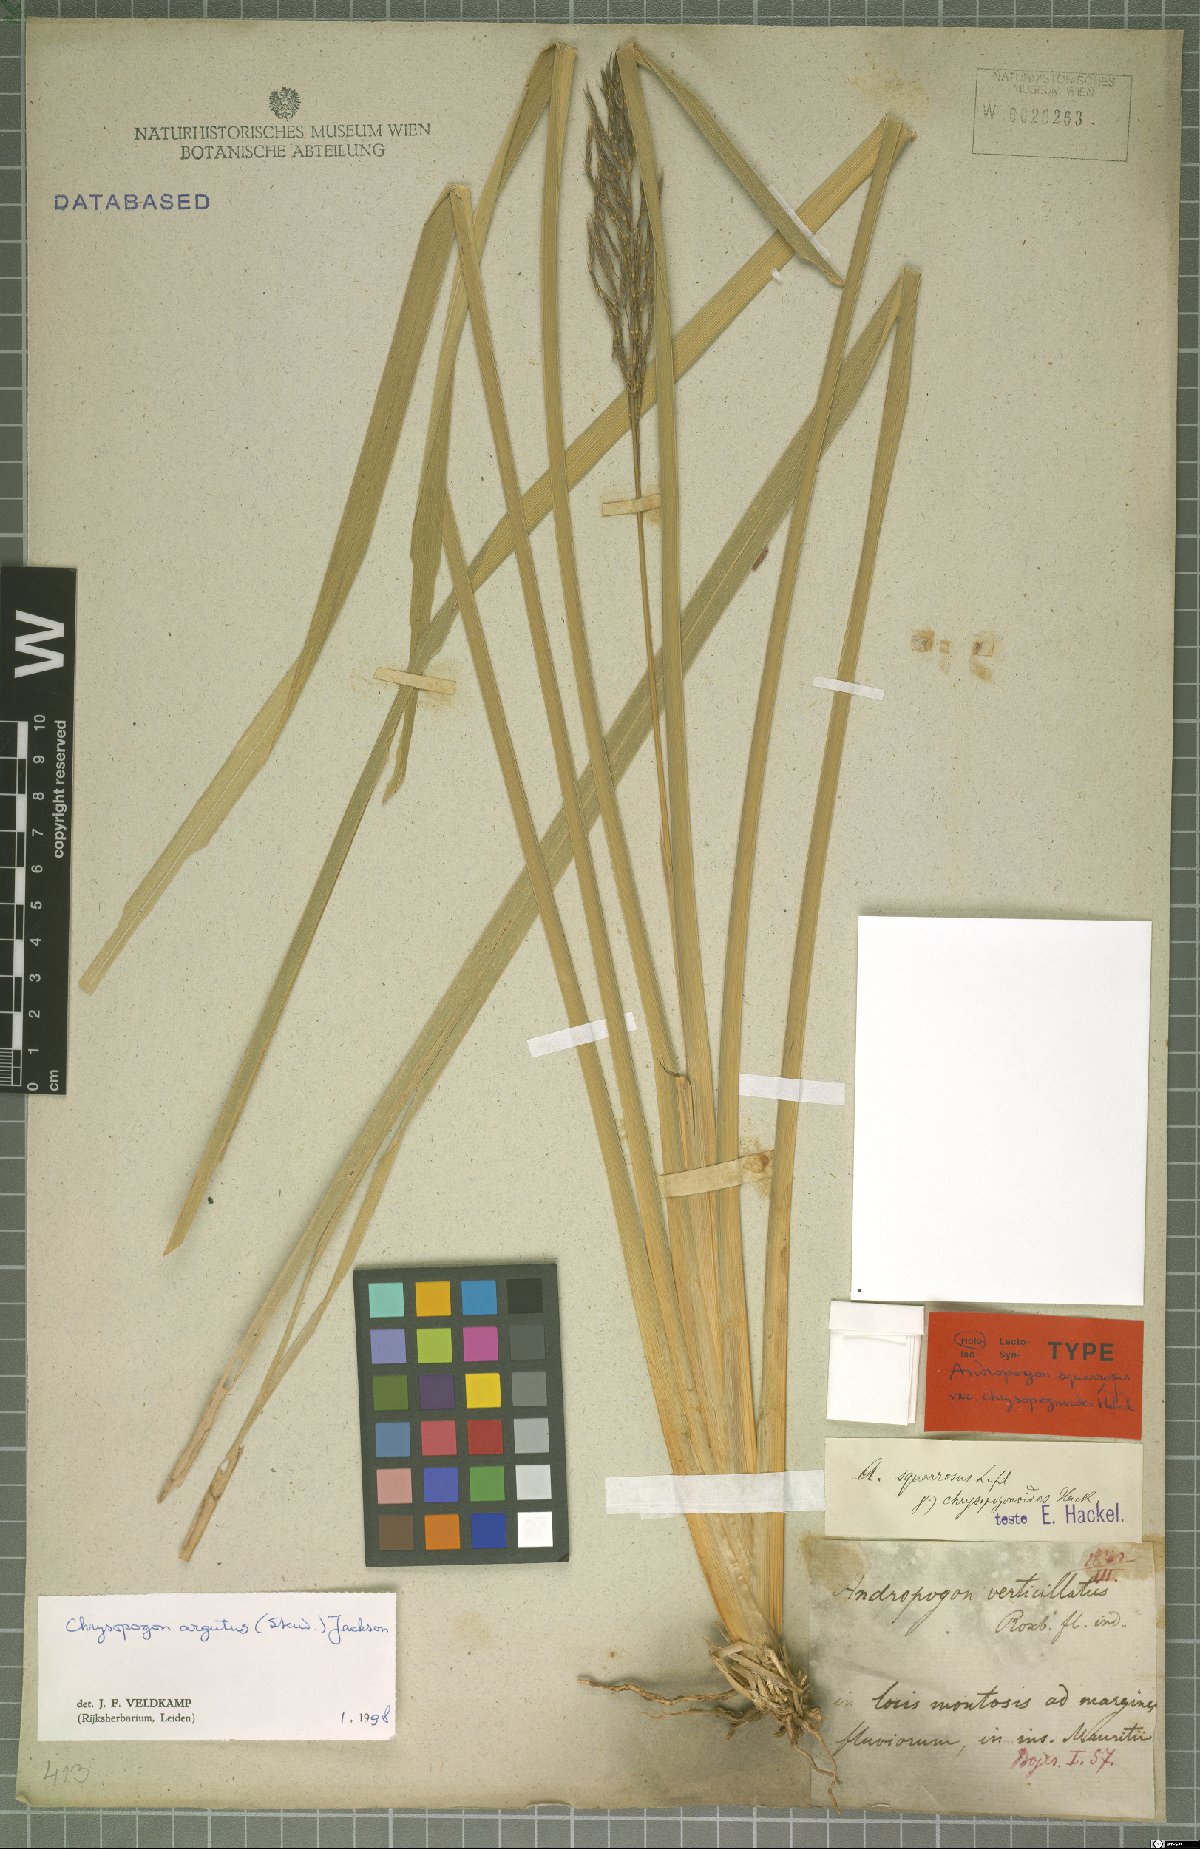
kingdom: Plantae
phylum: Tracheophyta
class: Liliopsida
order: Poales
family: Poaceae
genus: Chrysopogon
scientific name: Chrysopogon argutus
